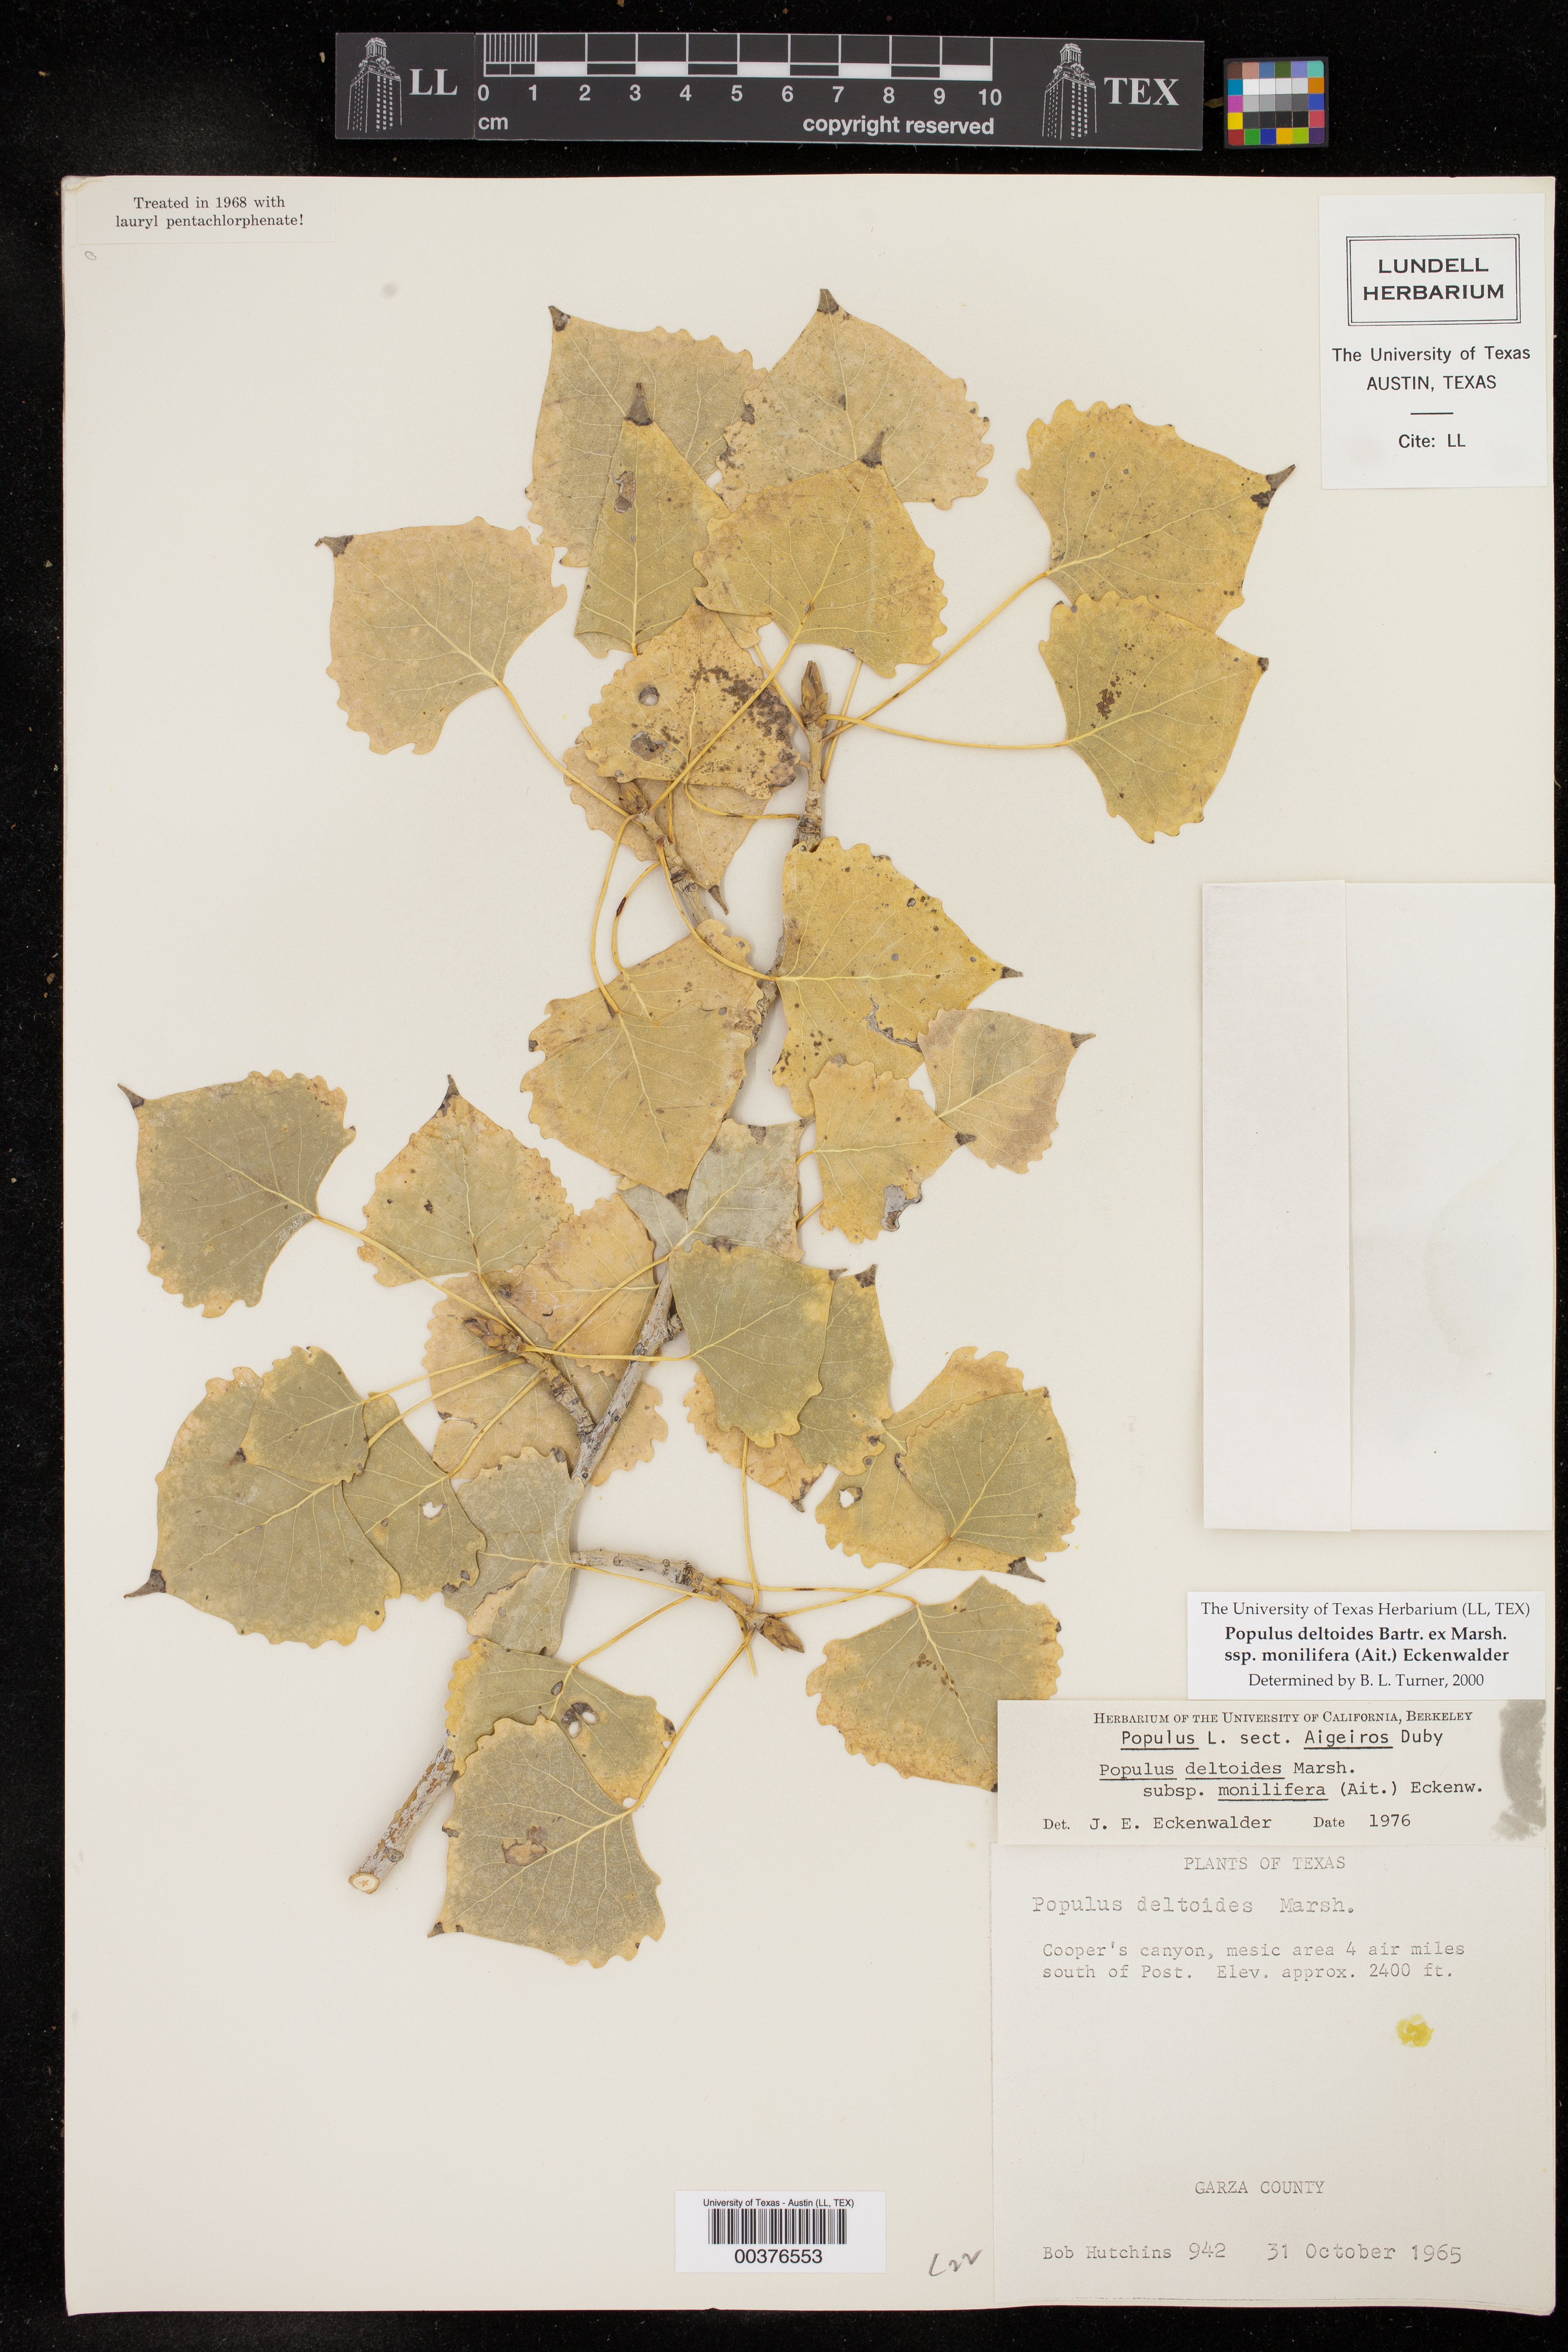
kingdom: Plantae
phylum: Tracheophyta
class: Magnoliopsida
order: Malpighiales
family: Salicaceae
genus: Populus
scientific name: Populus deltoides
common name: Eastern cottonwood
